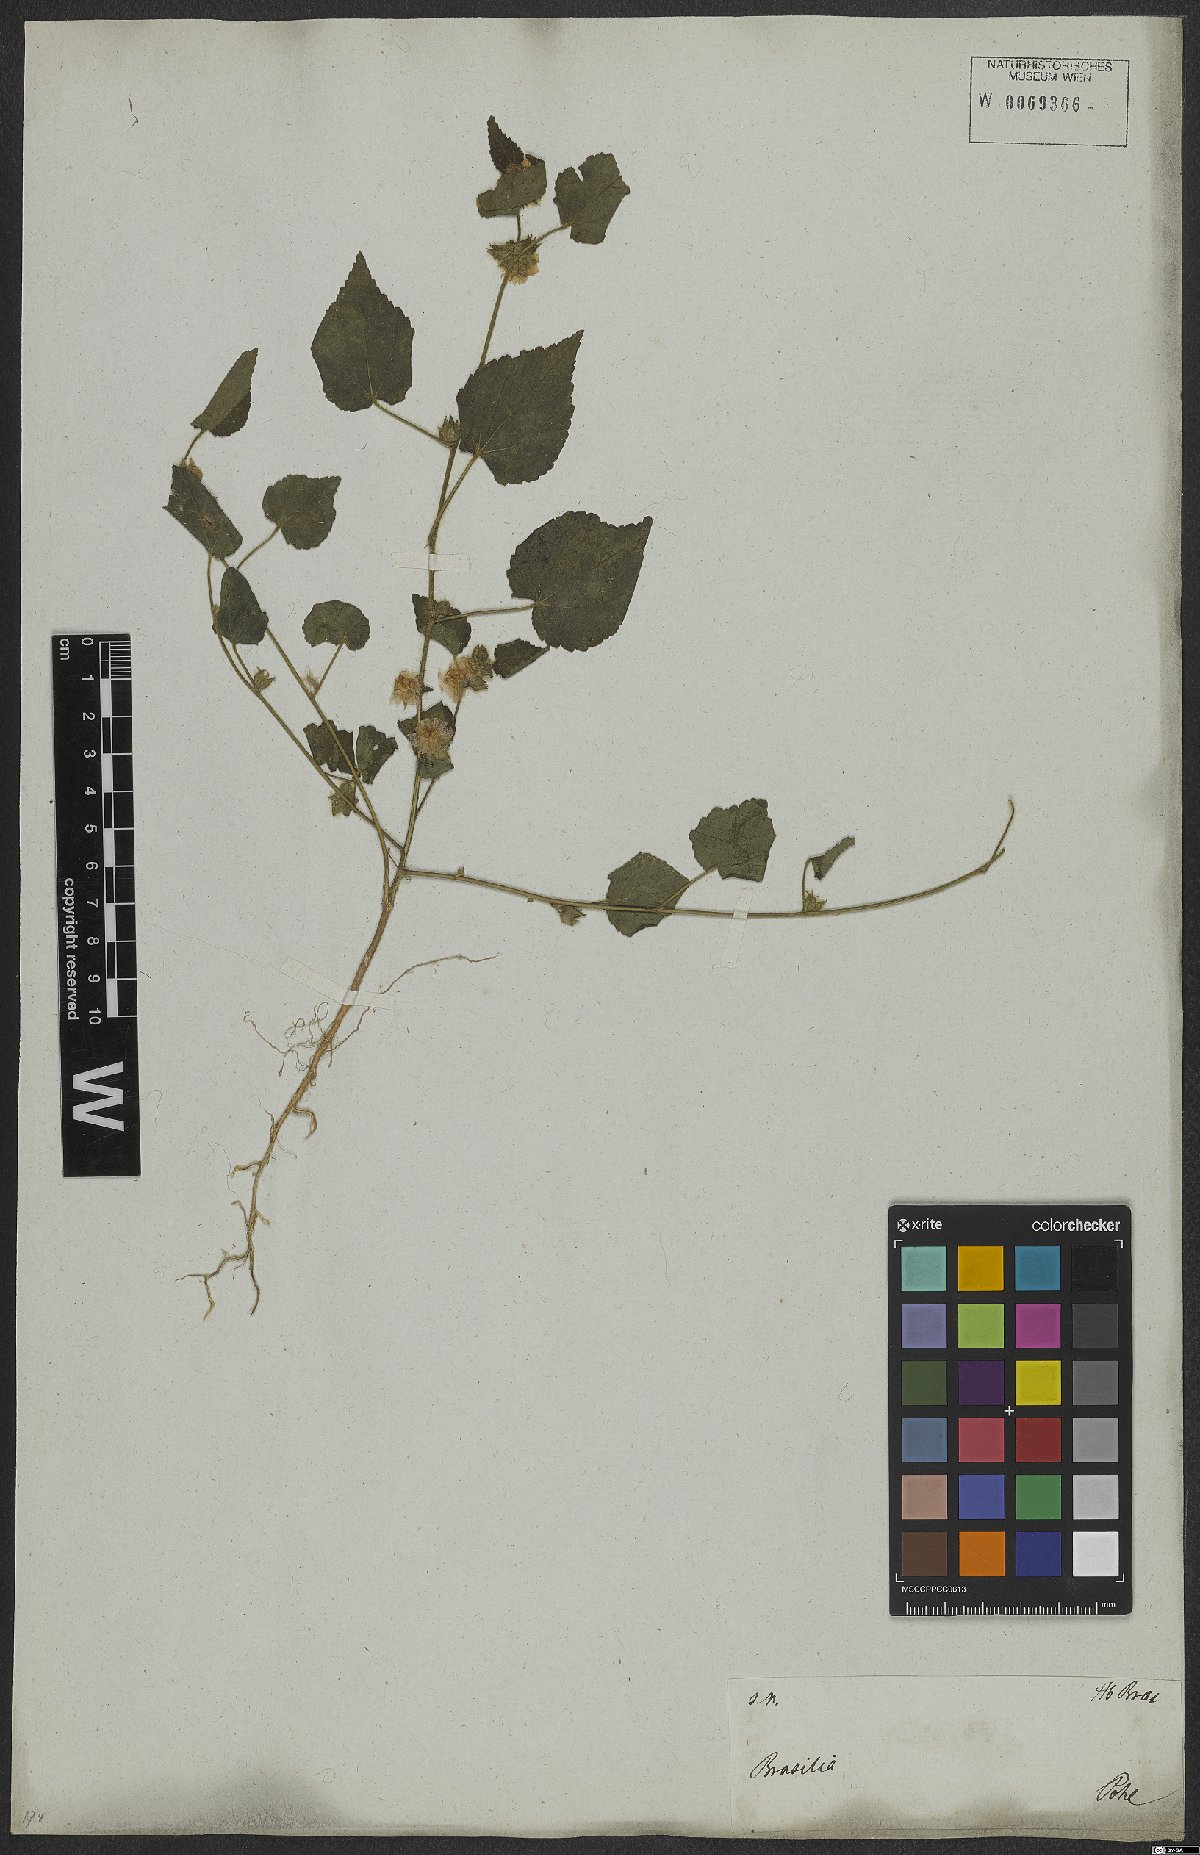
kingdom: Plantae
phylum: Tracheophyta
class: Magnoliopsida
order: Malvales
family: Malvaceae
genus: Sida
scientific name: Sida urens
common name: Tropical fanpetals
